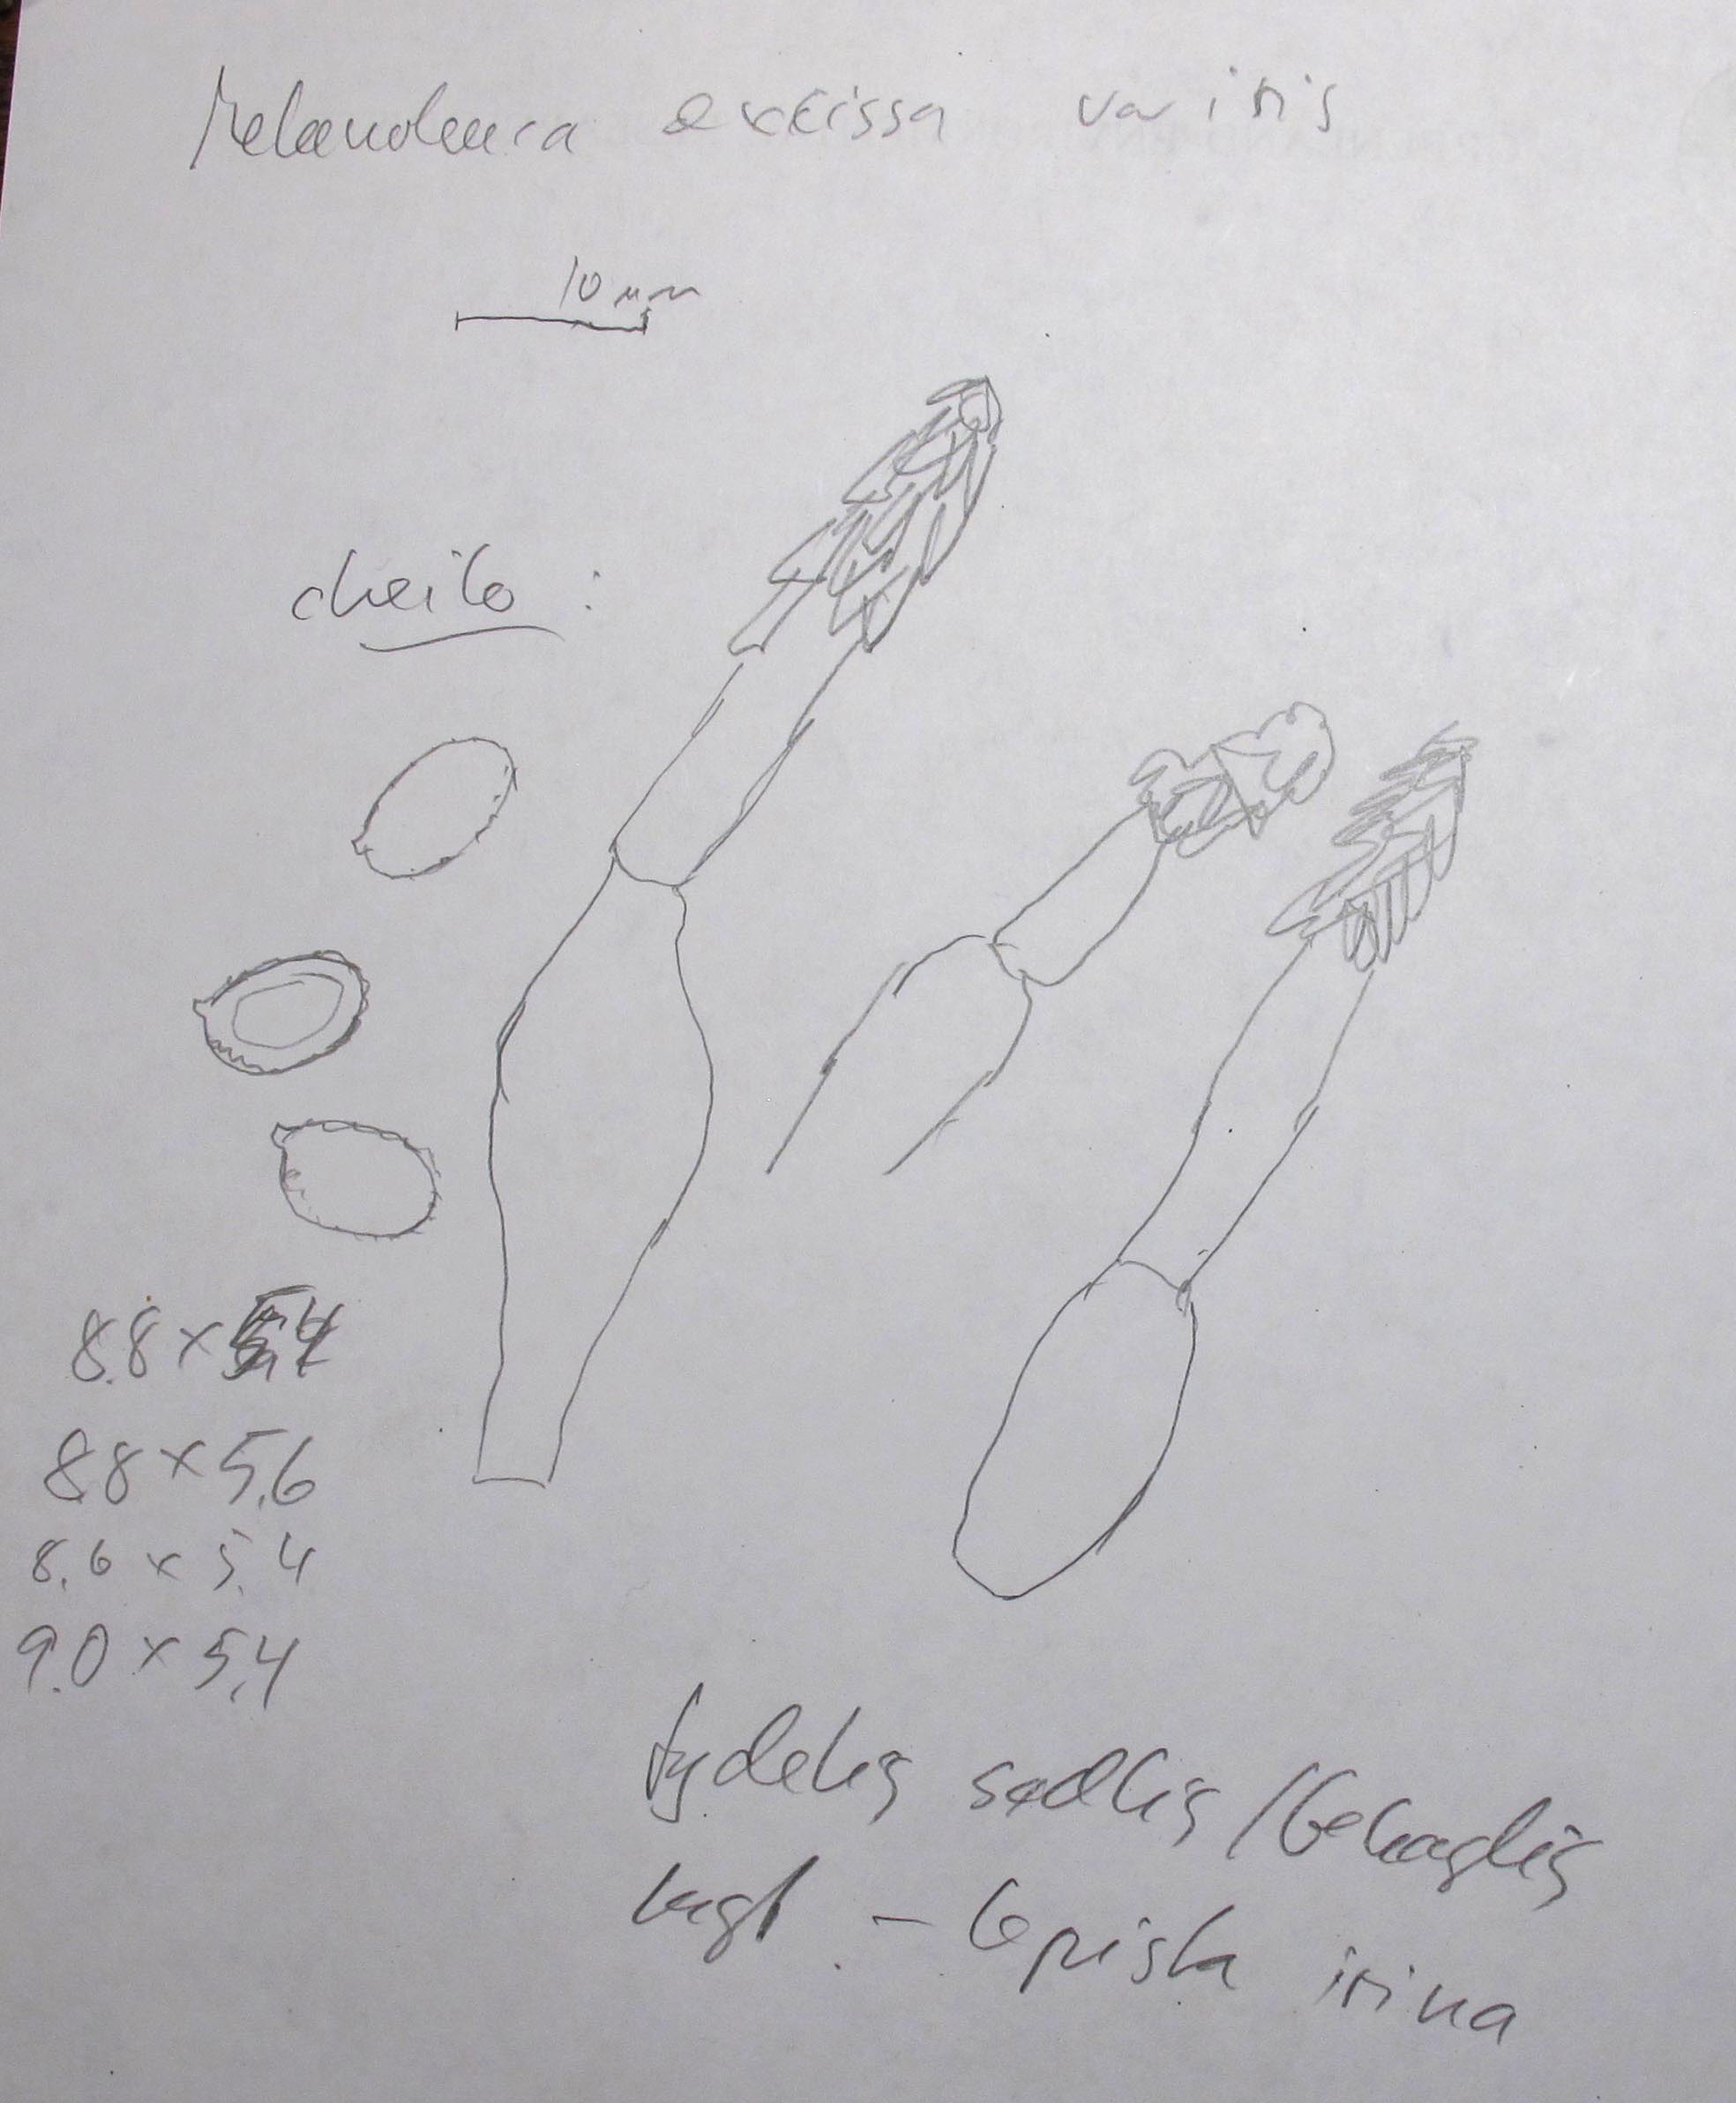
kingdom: Fungi
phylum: Basidiomycota
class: Agaricomycetes
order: Agaricales
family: Tricholomataceae
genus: Melanoleuca
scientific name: Melanoleuca exscissa
